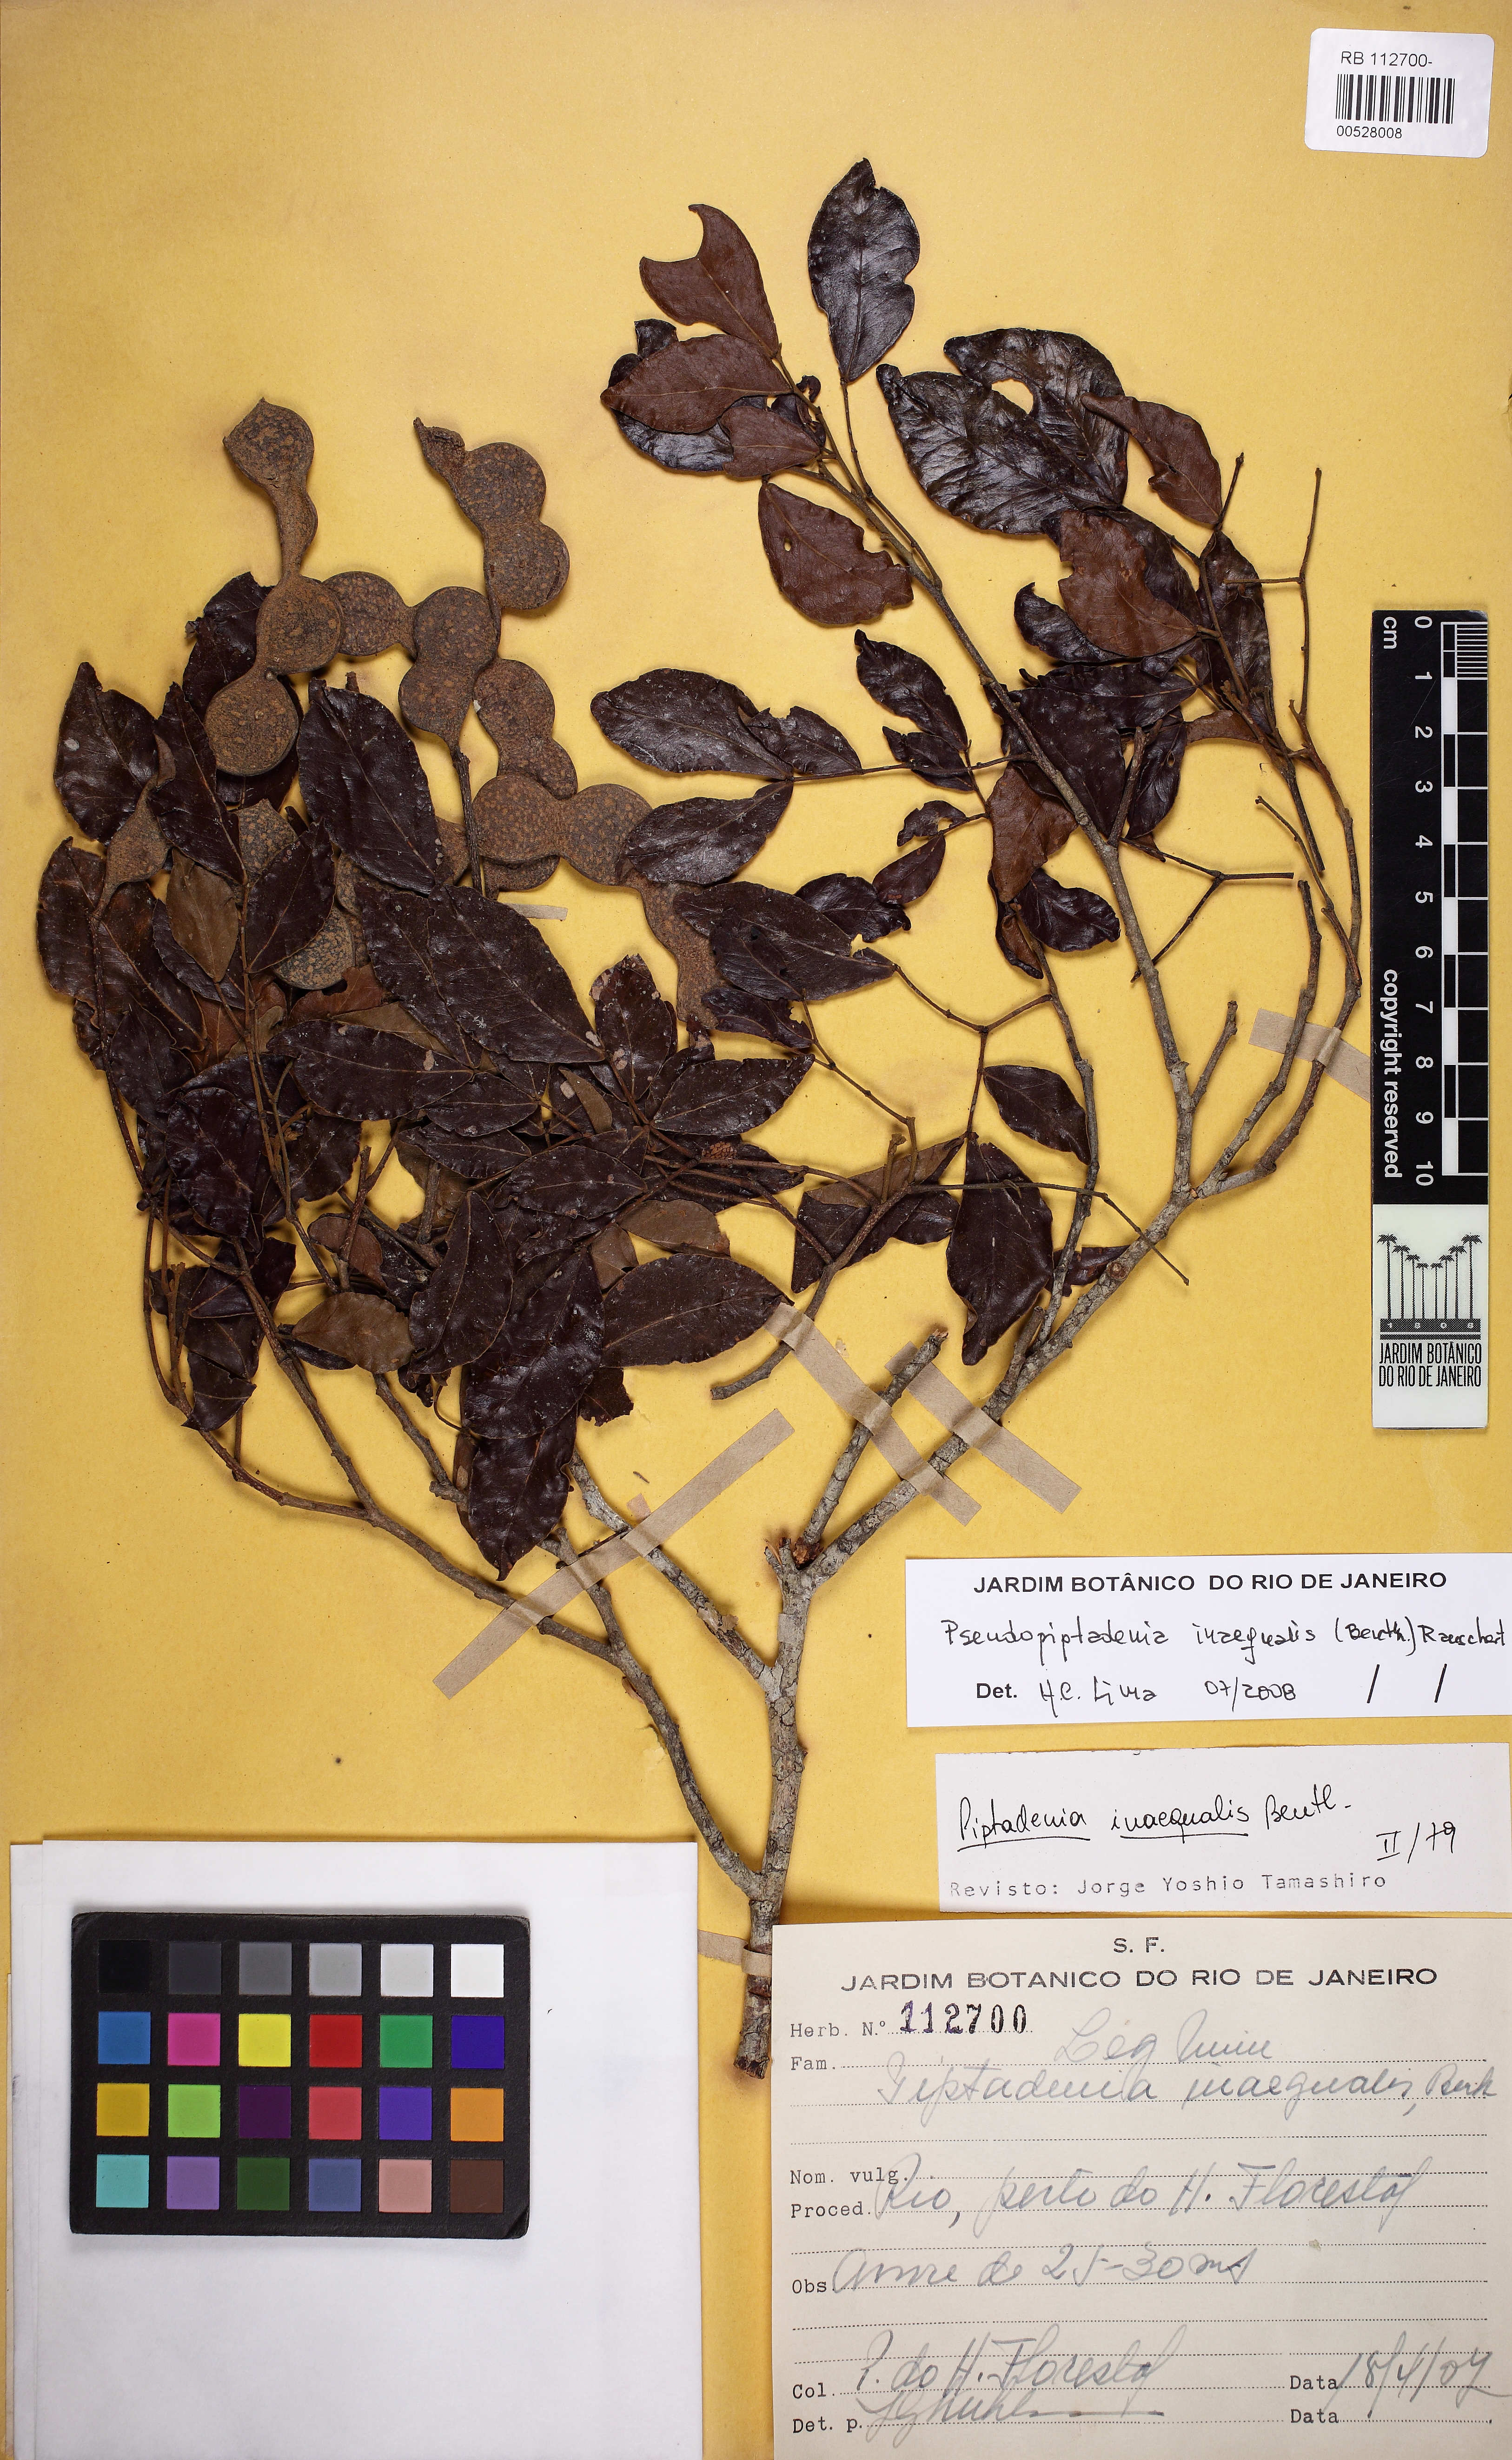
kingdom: Plantae
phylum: Tracheophyta
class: Magnoliopsida
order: Fabales
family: Fabaceae
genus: Pseudopiptadenia
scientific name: Pseudopiptadenia inaequalis
